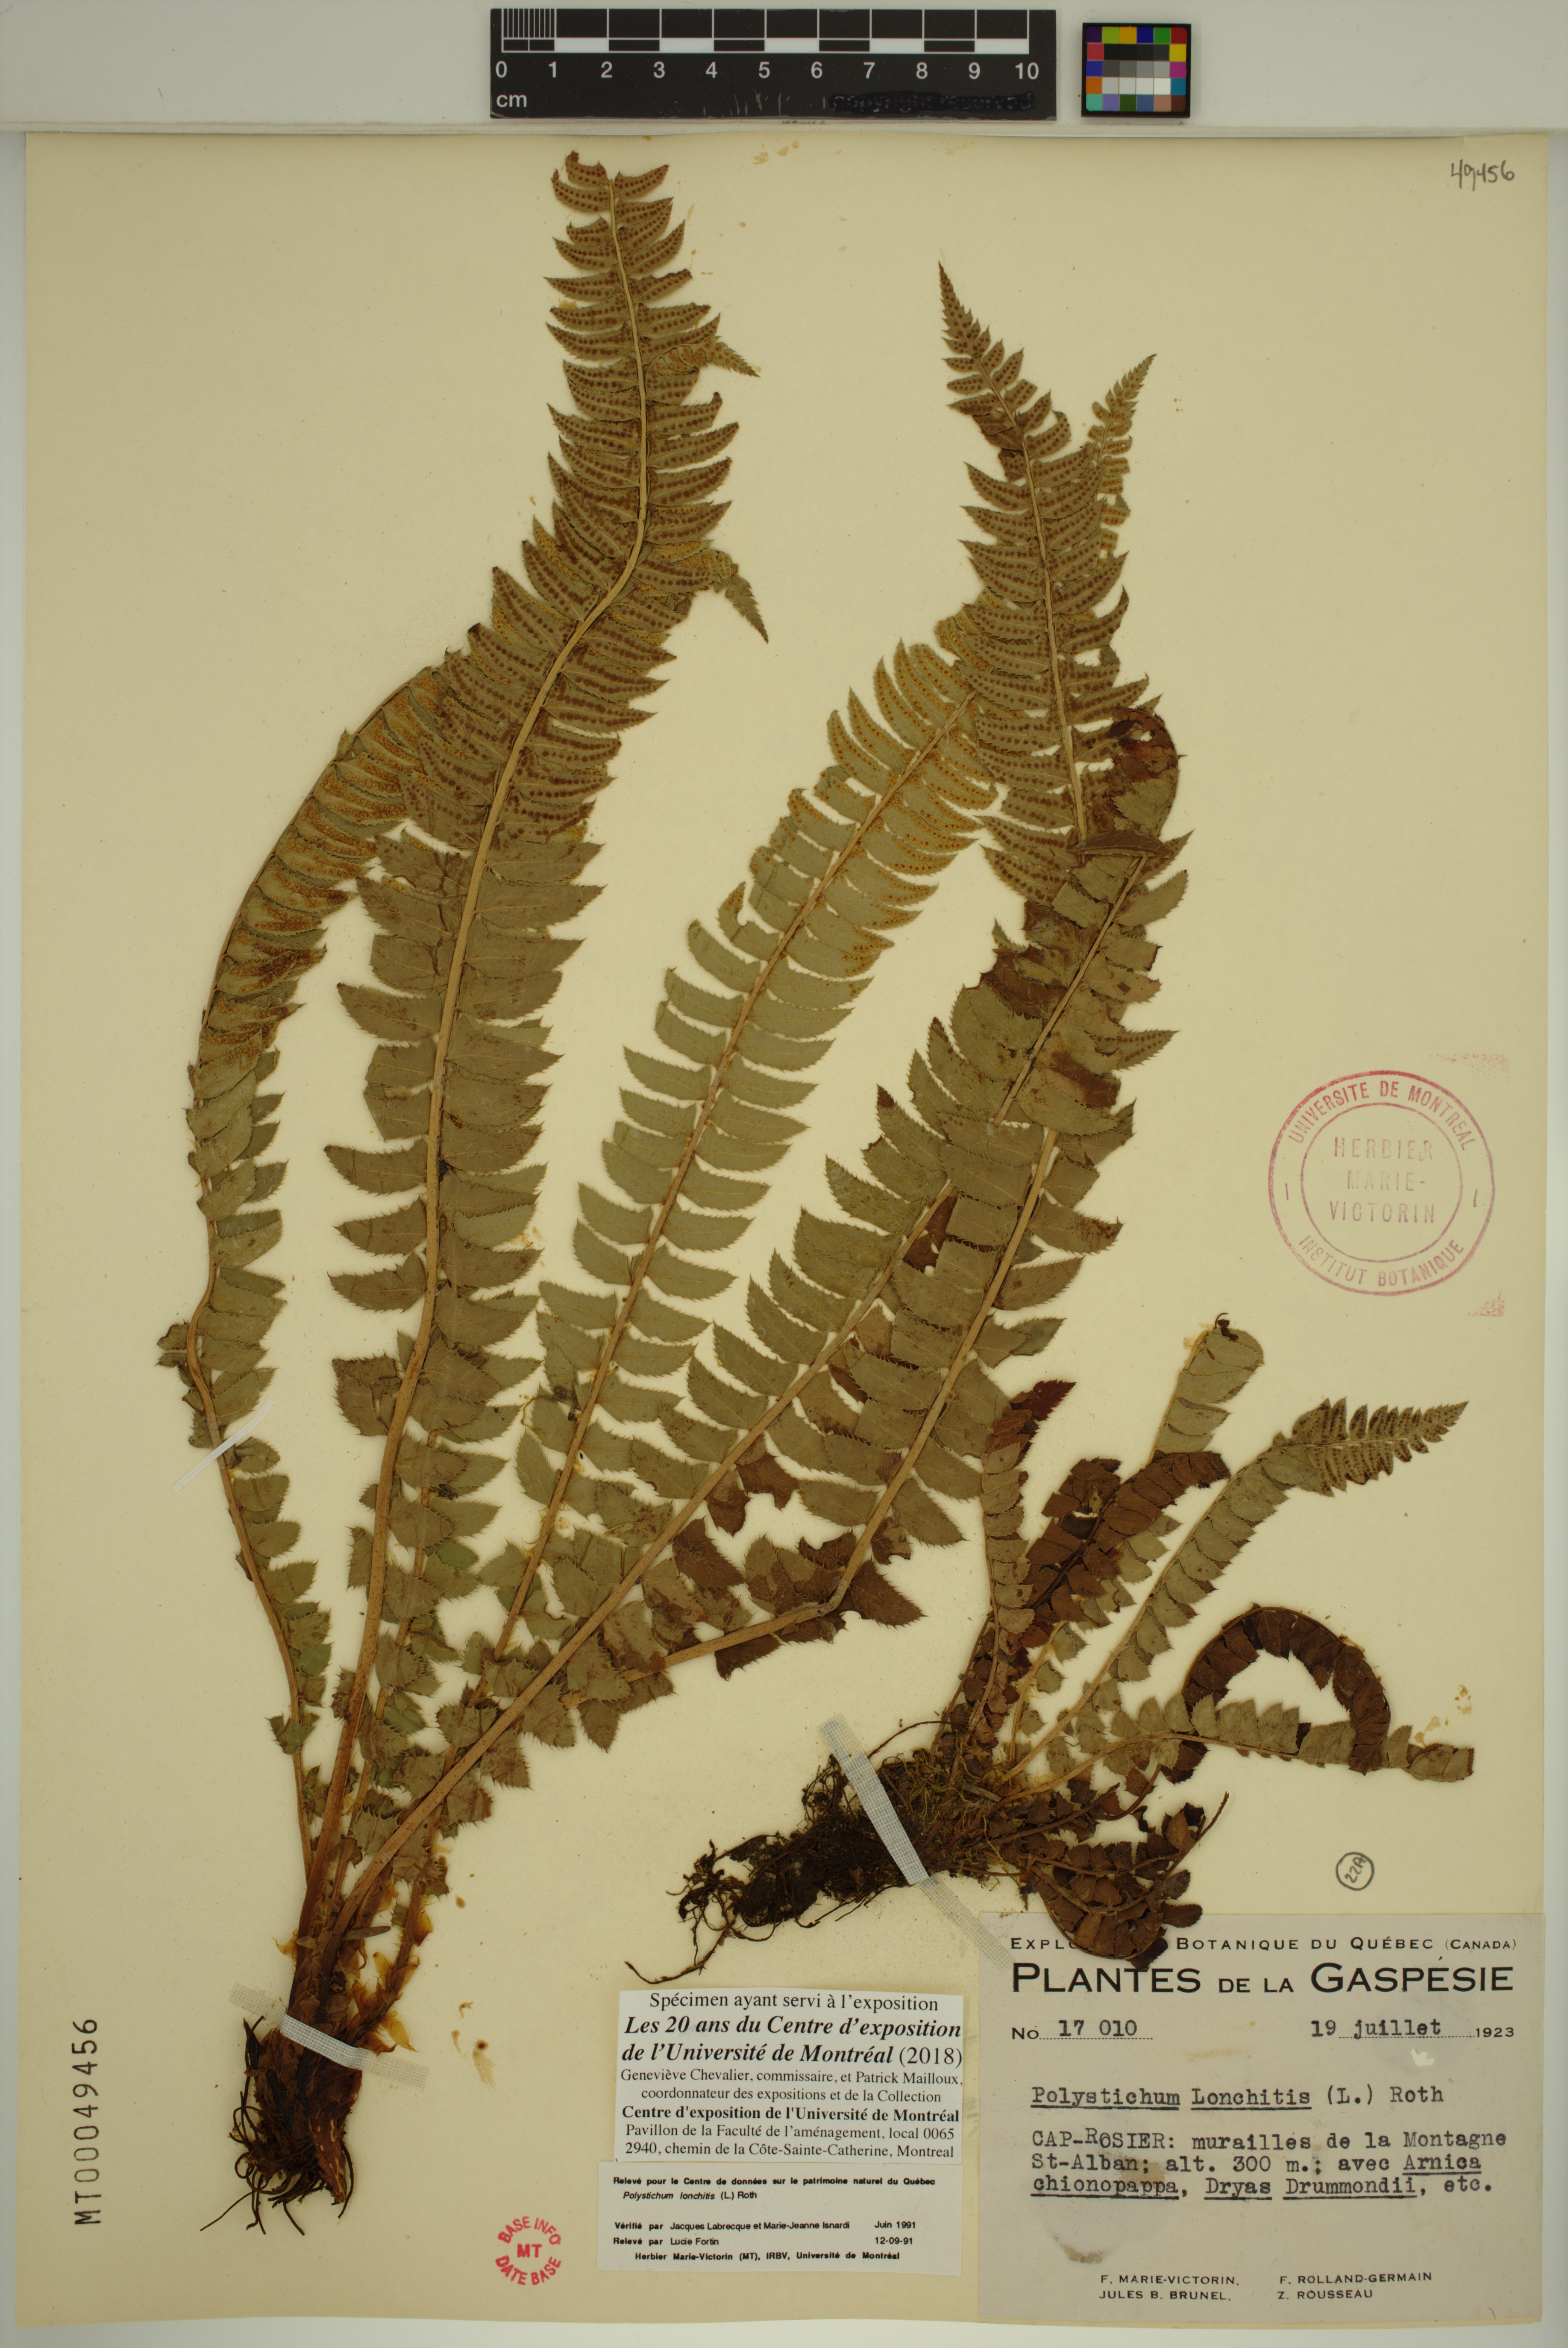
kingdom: Plantae
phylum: Tracheophyta
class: Polypodiopsida
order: Polypodiales
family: Dryopteridaceae
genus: Polystichum
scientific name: Polystichum lonchitis
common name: Holly fern
